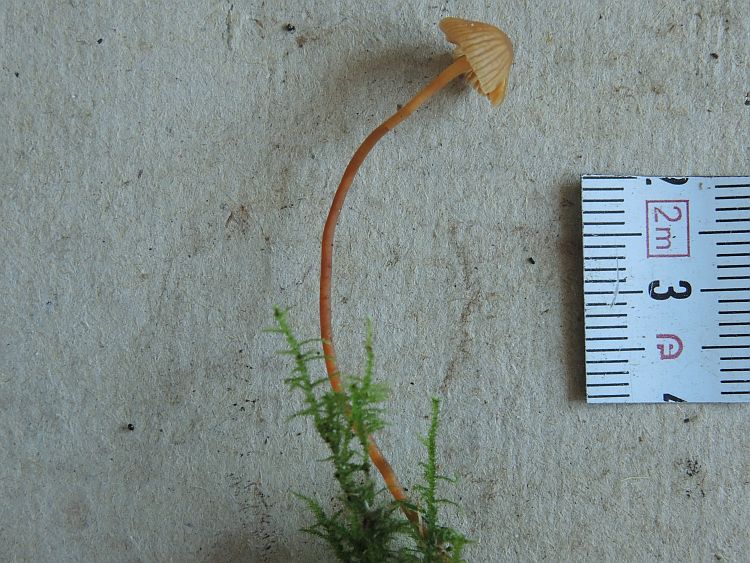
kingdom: Fungi
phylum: Basidiomycota
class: Agaricomycetes
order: Agaricales
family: Hymenogastraceae
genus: Galerina
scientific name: Galerina vittiformis
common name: Hairy leg bell
